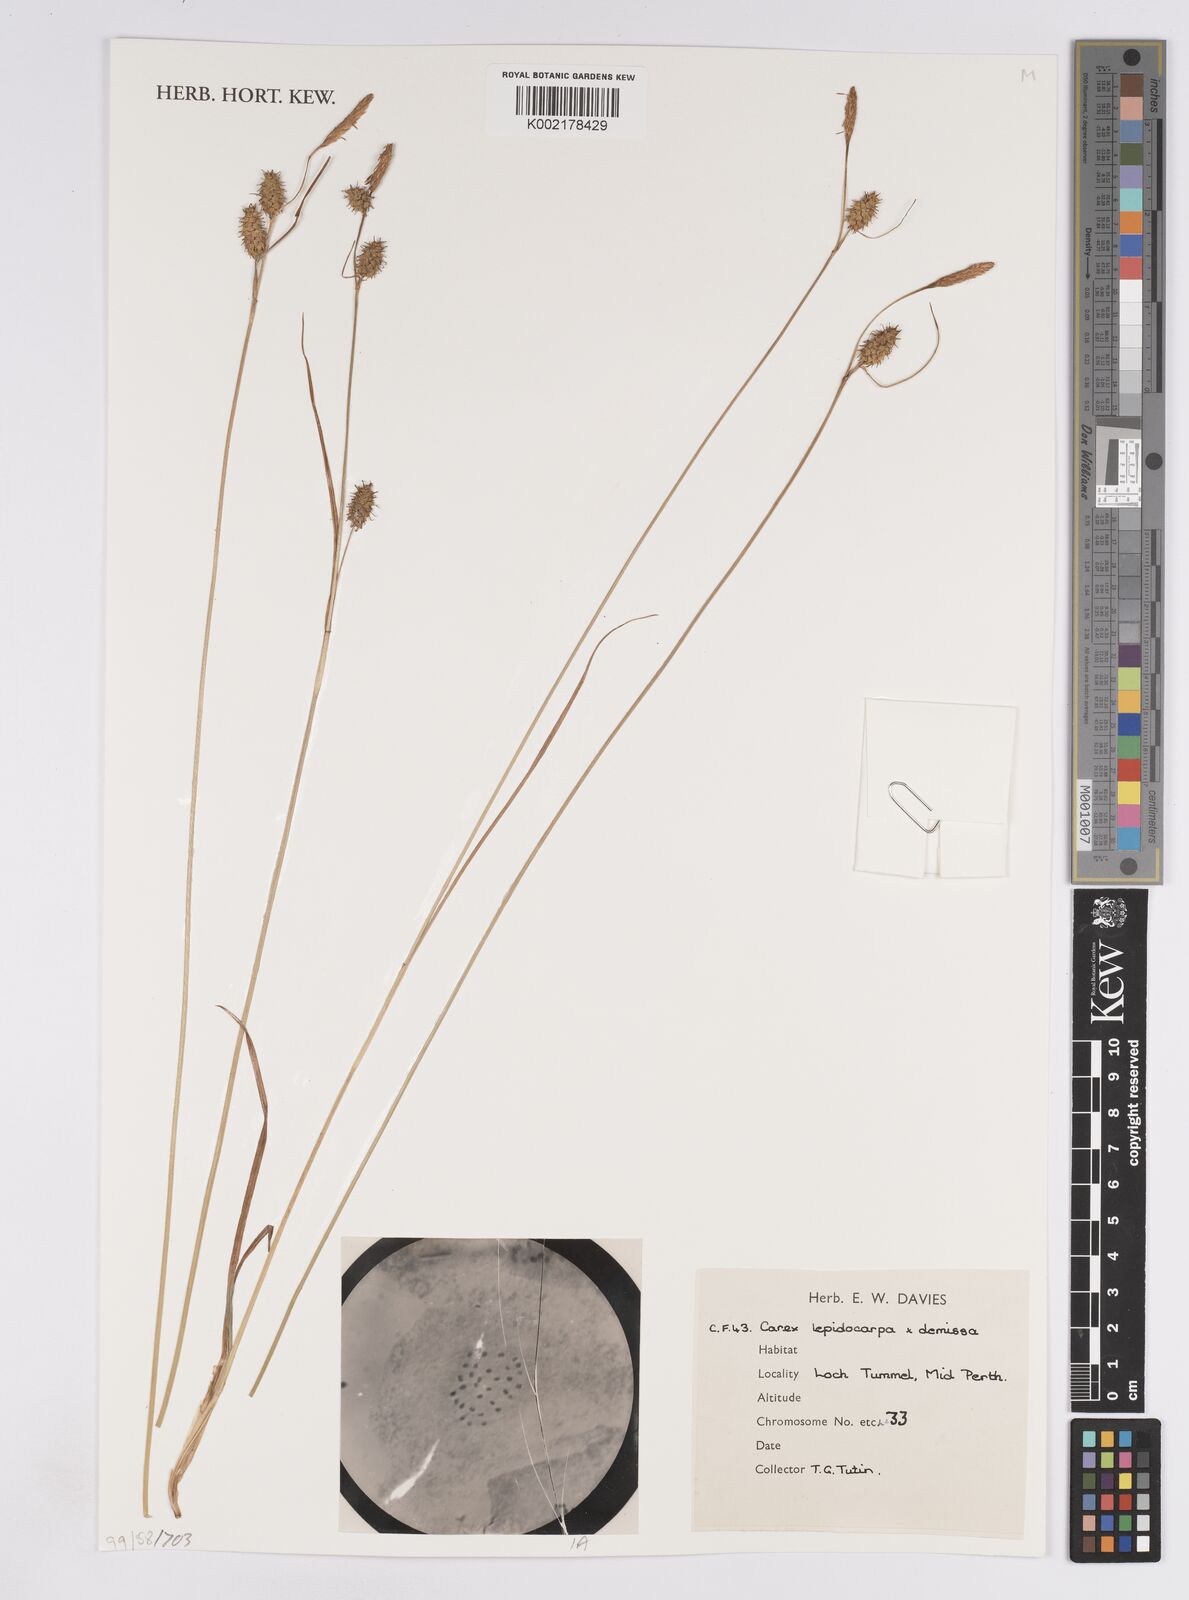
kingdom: Plantae
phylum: Tracheophyta
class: Liliopsida
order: Poales
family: Cyperaceae
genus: Carex
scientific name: Carex lepidocarpa
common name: Long-stalked yellow-sedge
